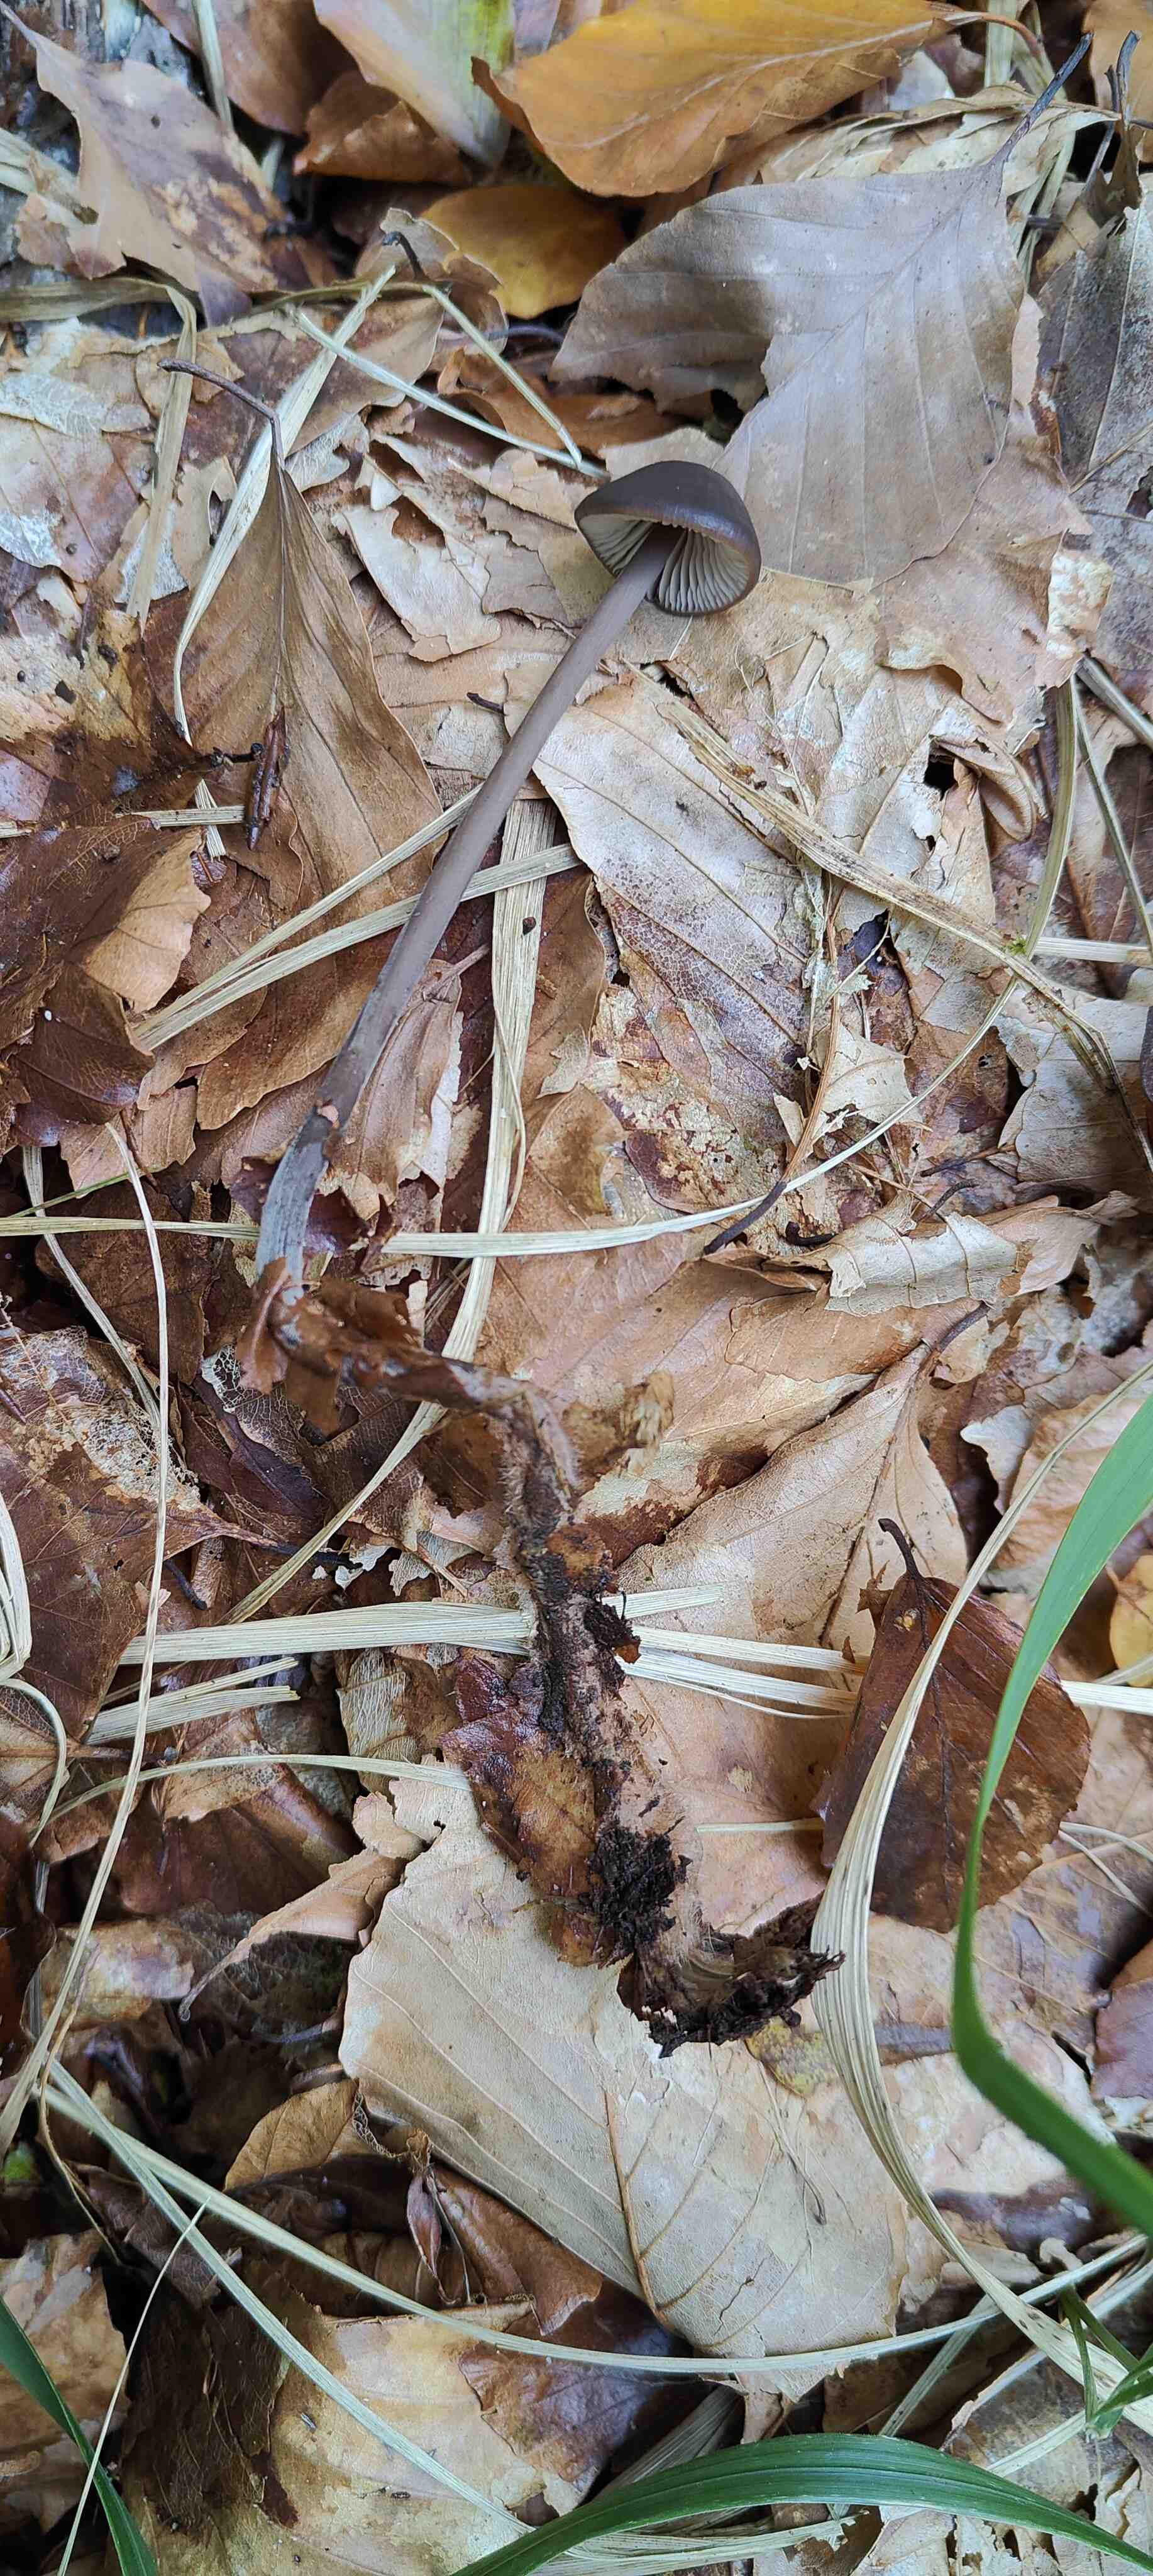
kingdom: Fungi
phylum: Basidiomycota
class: Agaricomycetes
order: Agaricales
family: Omphalotaceae
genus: Mycetinis
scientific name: Mycetinis alliaceus
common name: stor løghat
